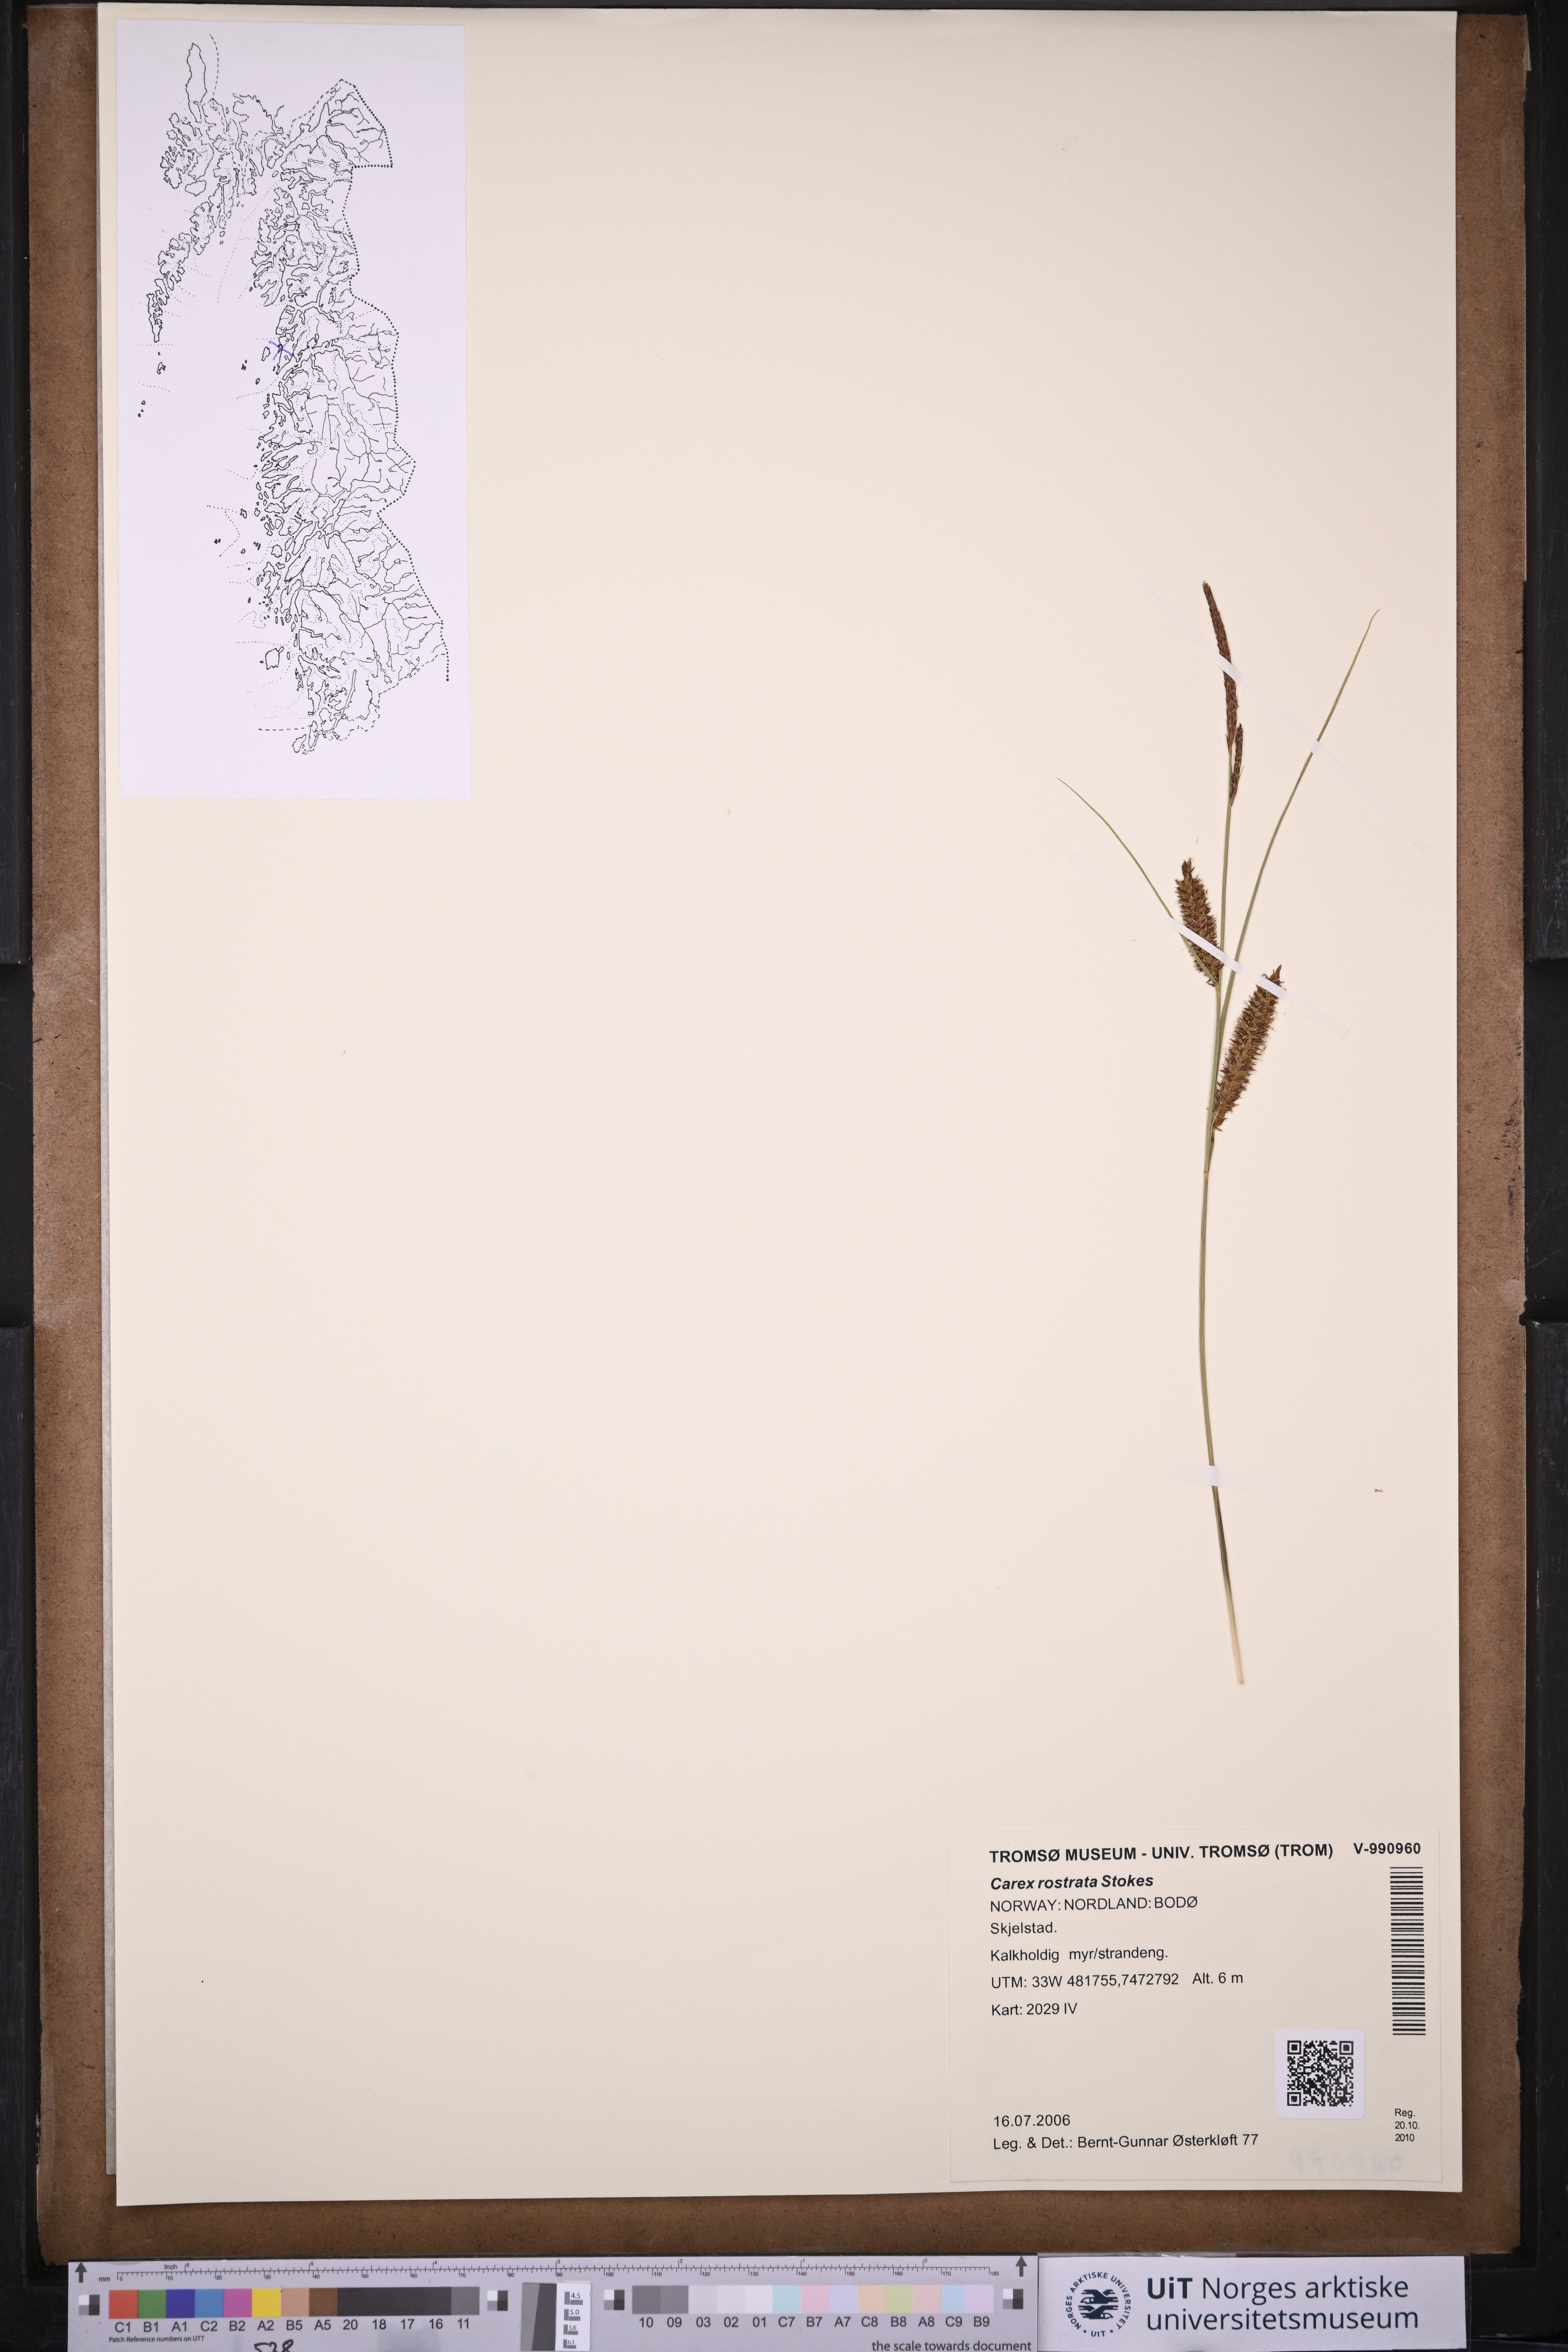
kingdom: Plantae
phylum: Tracheophyta
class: Liliopsida
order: Poales
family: Cyperaceae
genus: Carex
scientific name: Carex rostrata
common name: Bottle sedge
